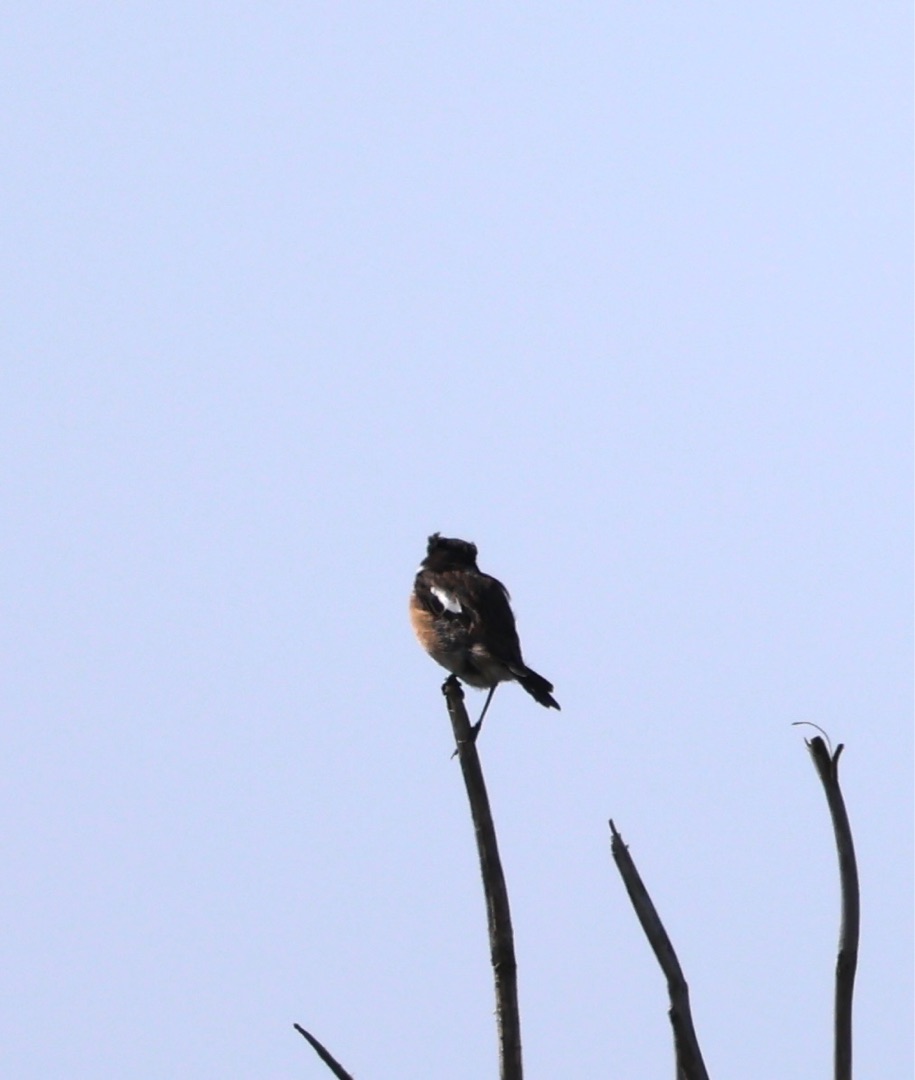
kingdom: Animalia
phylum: Chordata
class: Aves
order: Passeriformes
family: Muscicapidae
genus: Saxicola
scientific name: Saxicola rubicola
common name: Sortstrubet bynkefugl
